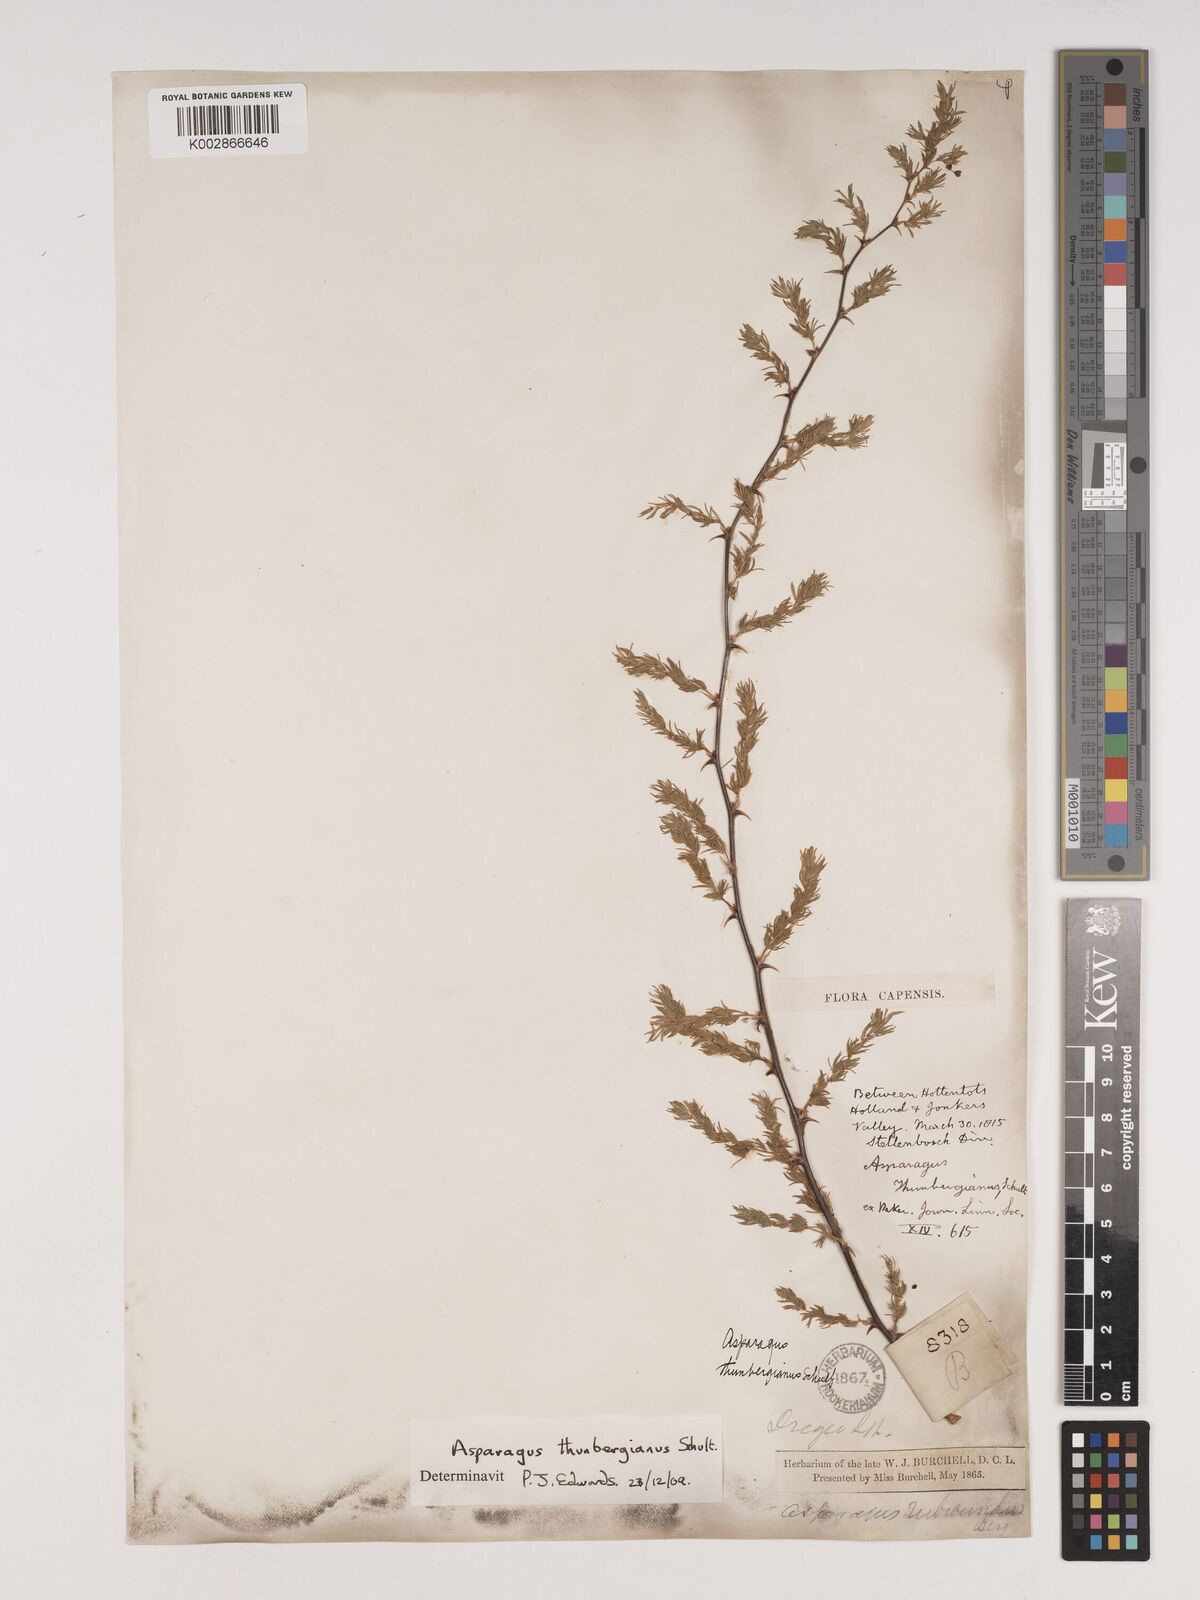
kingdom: Plantae
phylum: Tracheophyta
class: Liliopsida
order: Asparagales
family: Asparagaceae
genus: Asparagus
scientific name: Asparagus rubicundus
